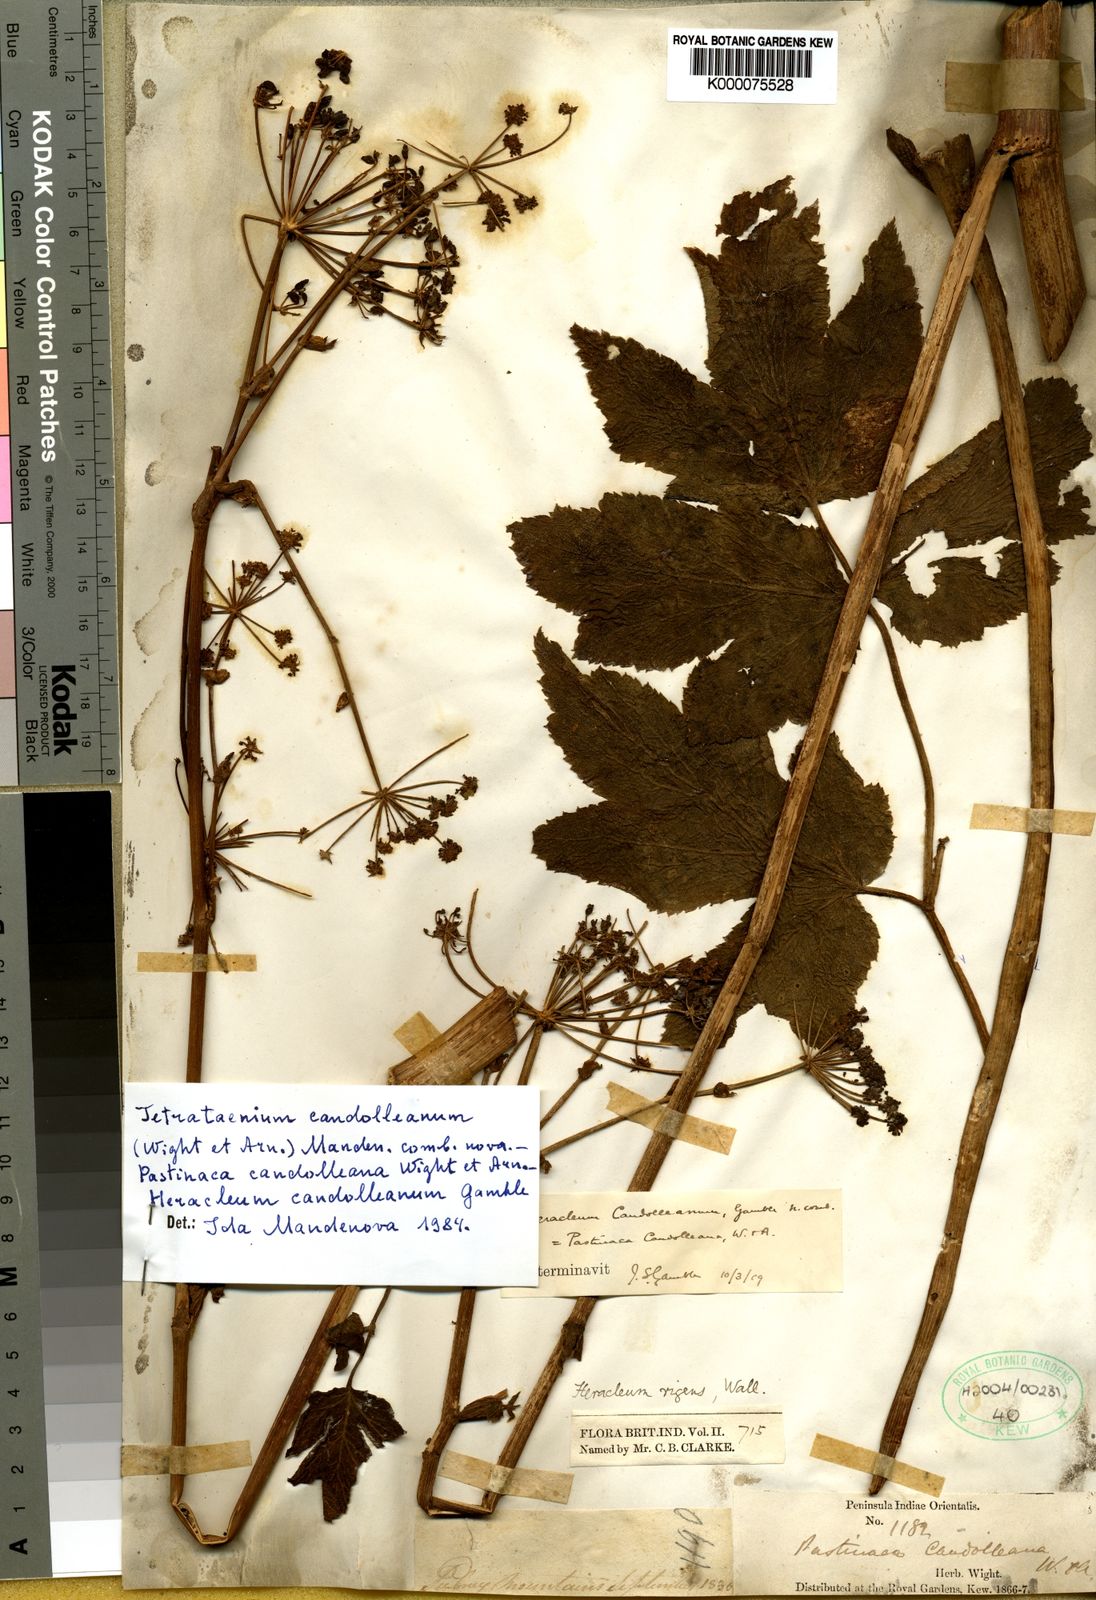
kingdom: Plantae
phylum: Tracheophyta
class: Magnoliopsida
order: Apiales
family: Apiaceae
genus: Tetrataenium
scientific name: Tetrataenium rigens
